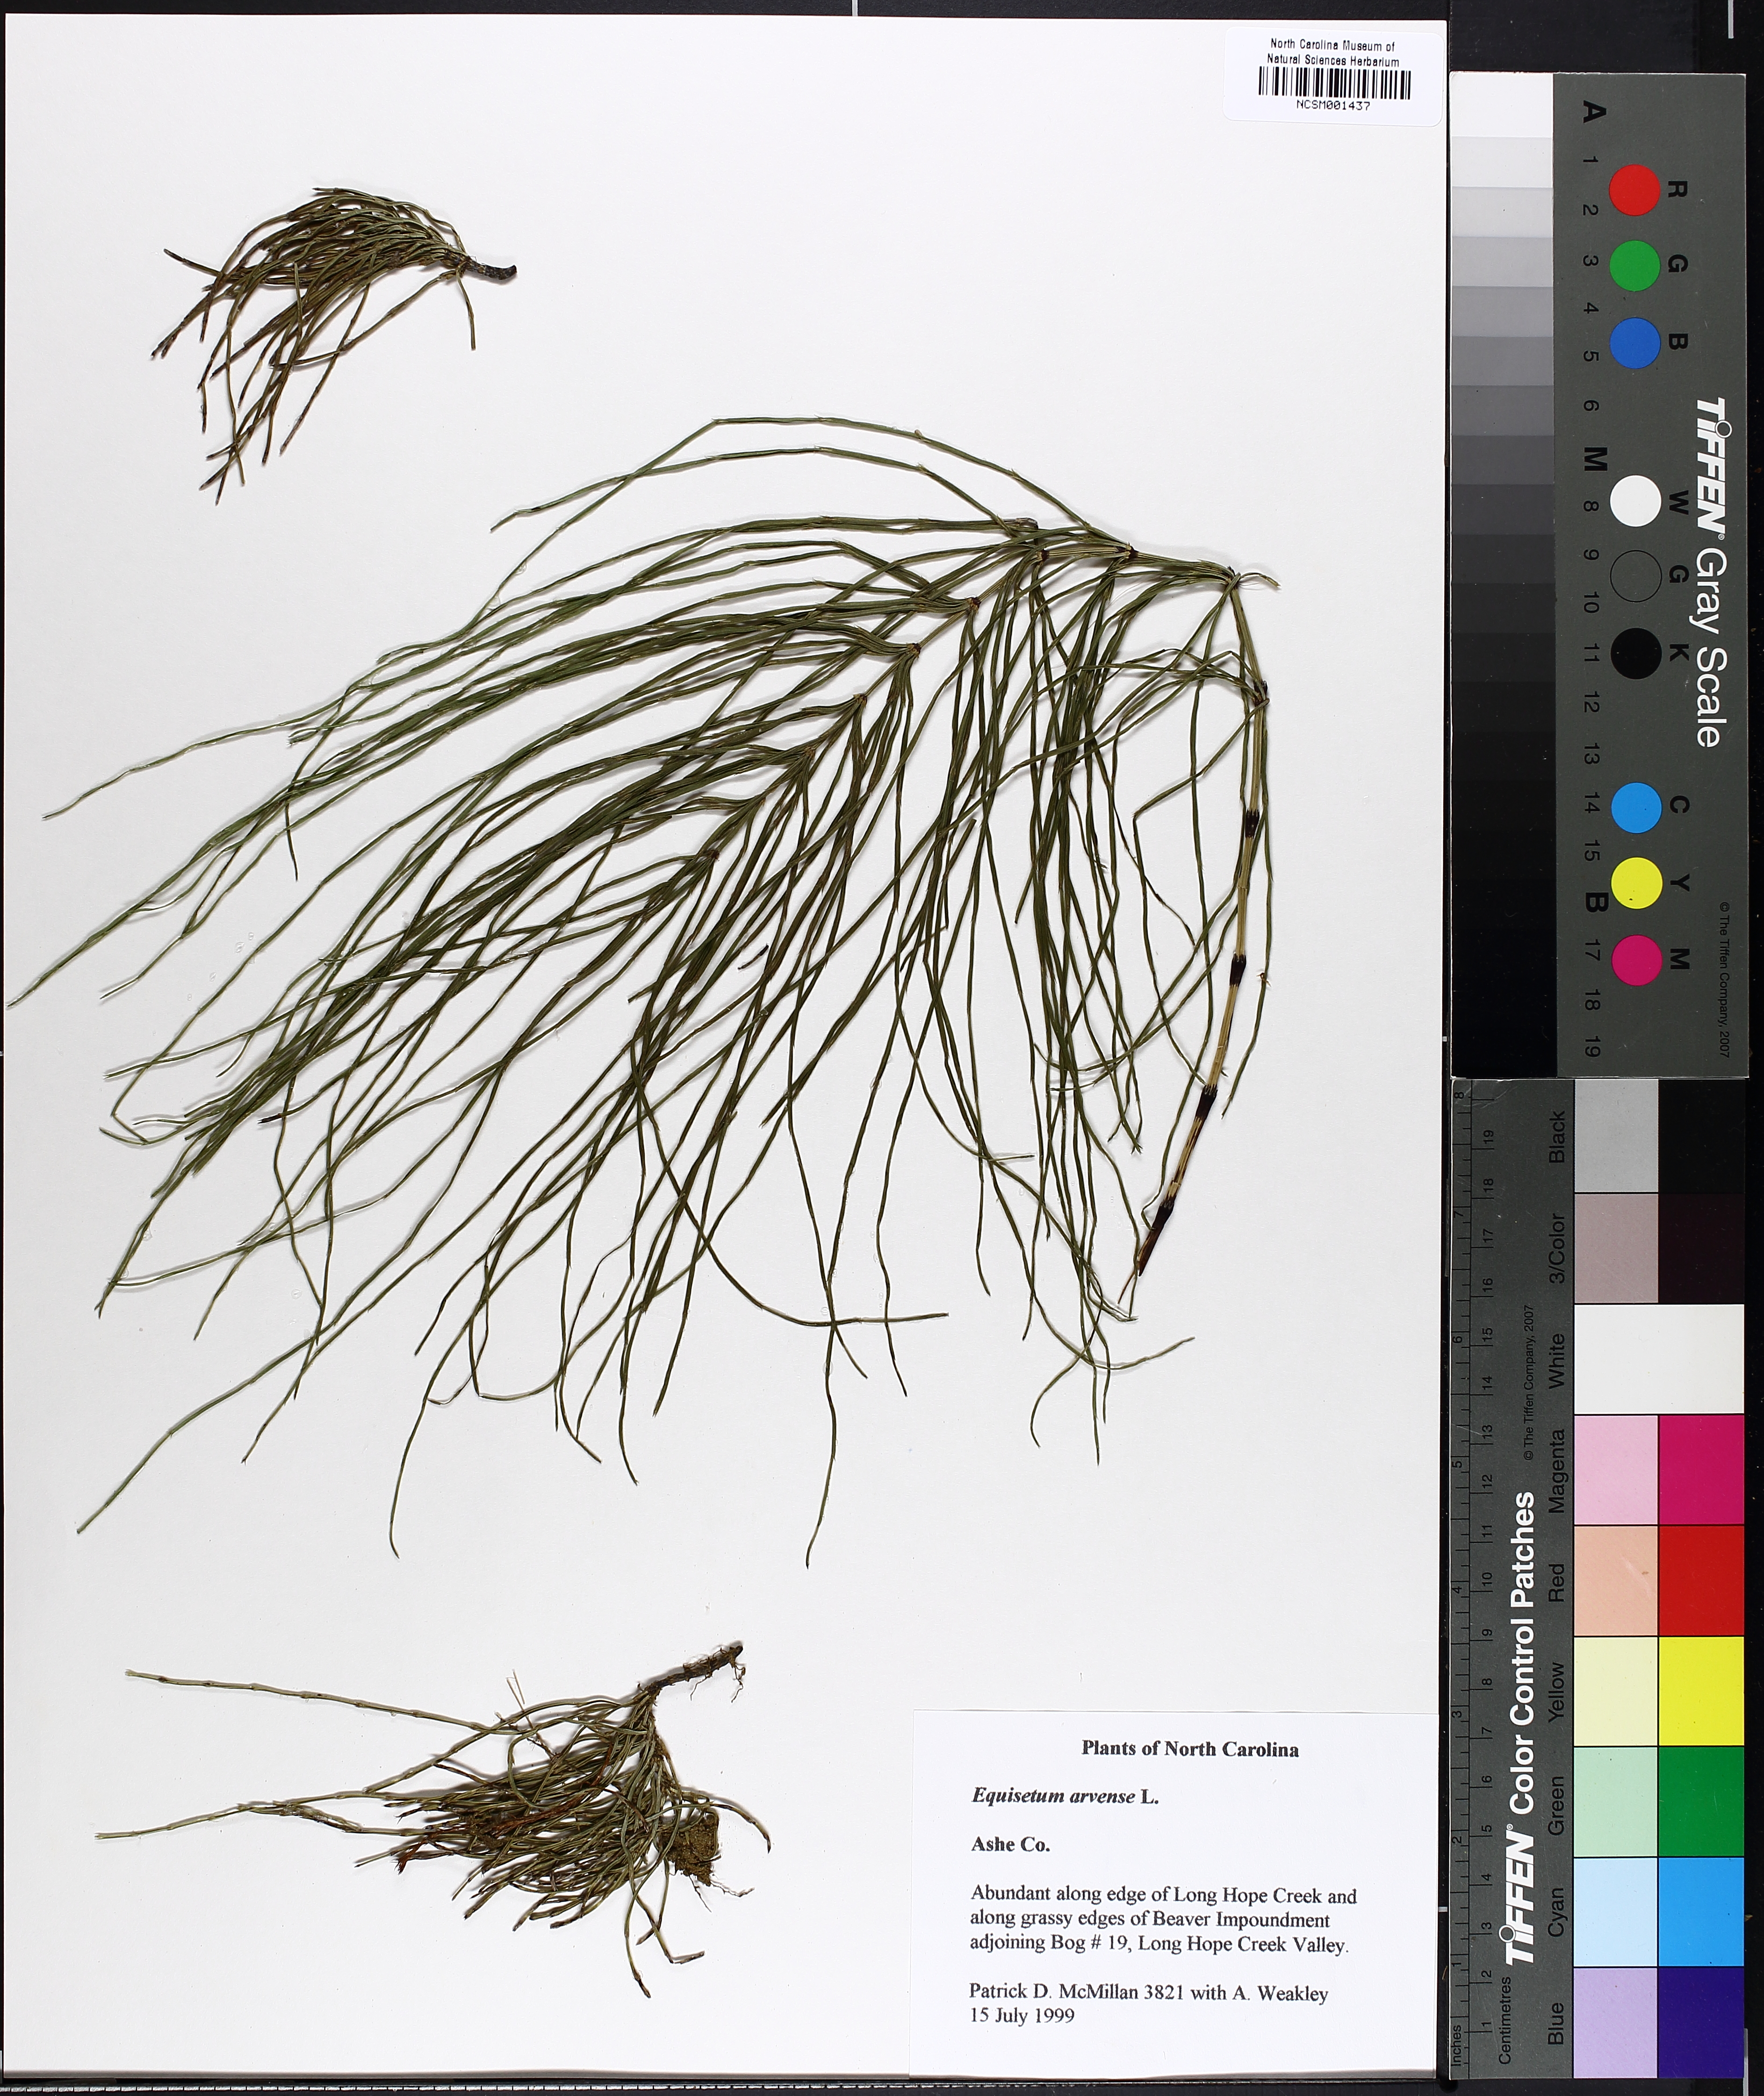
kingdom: Plantae
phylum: Tracheophyta
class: Polypodiopsida
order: Equisetales
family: Equisetaceae
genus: Equisetum
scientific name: Equisetum arvense
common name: Field horsetail
